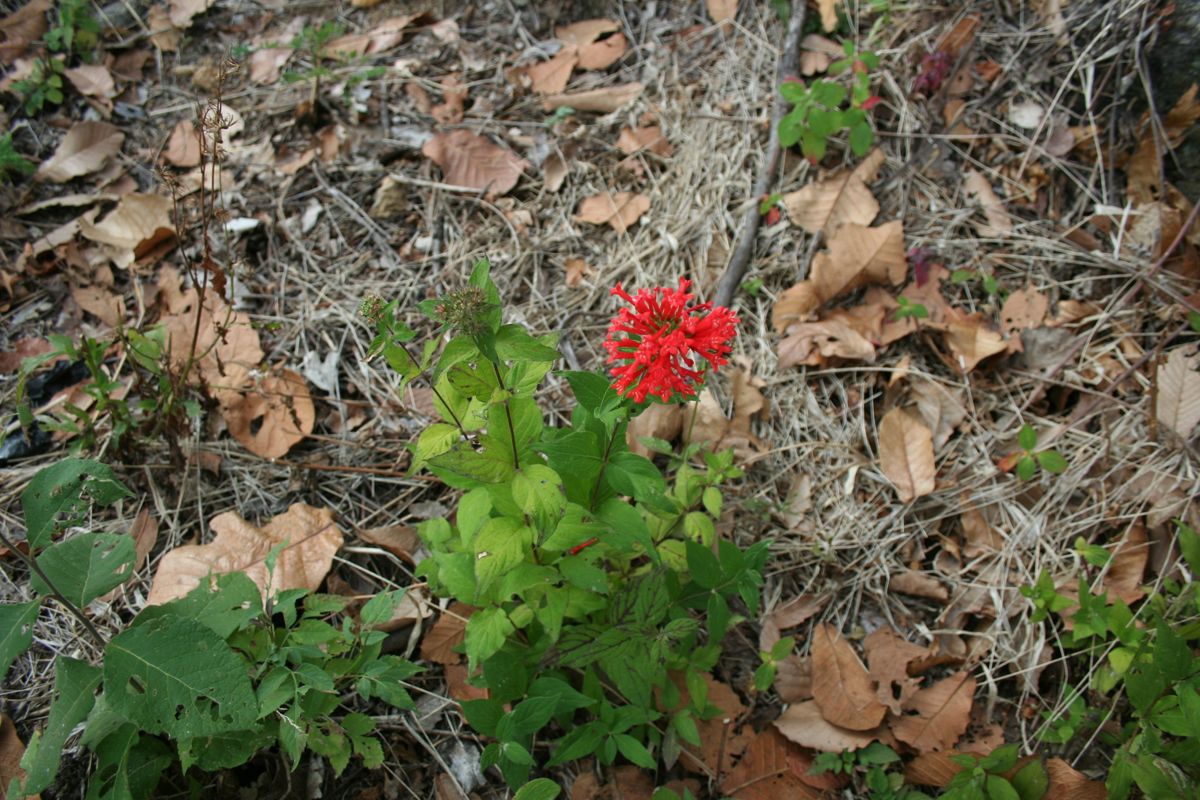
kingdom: Plantae
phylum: Tracheophyta
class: Magnoliopsida
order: Gentianales
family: Rubiaceae
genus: Bouvardia
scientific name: Bouvardia leiantha
